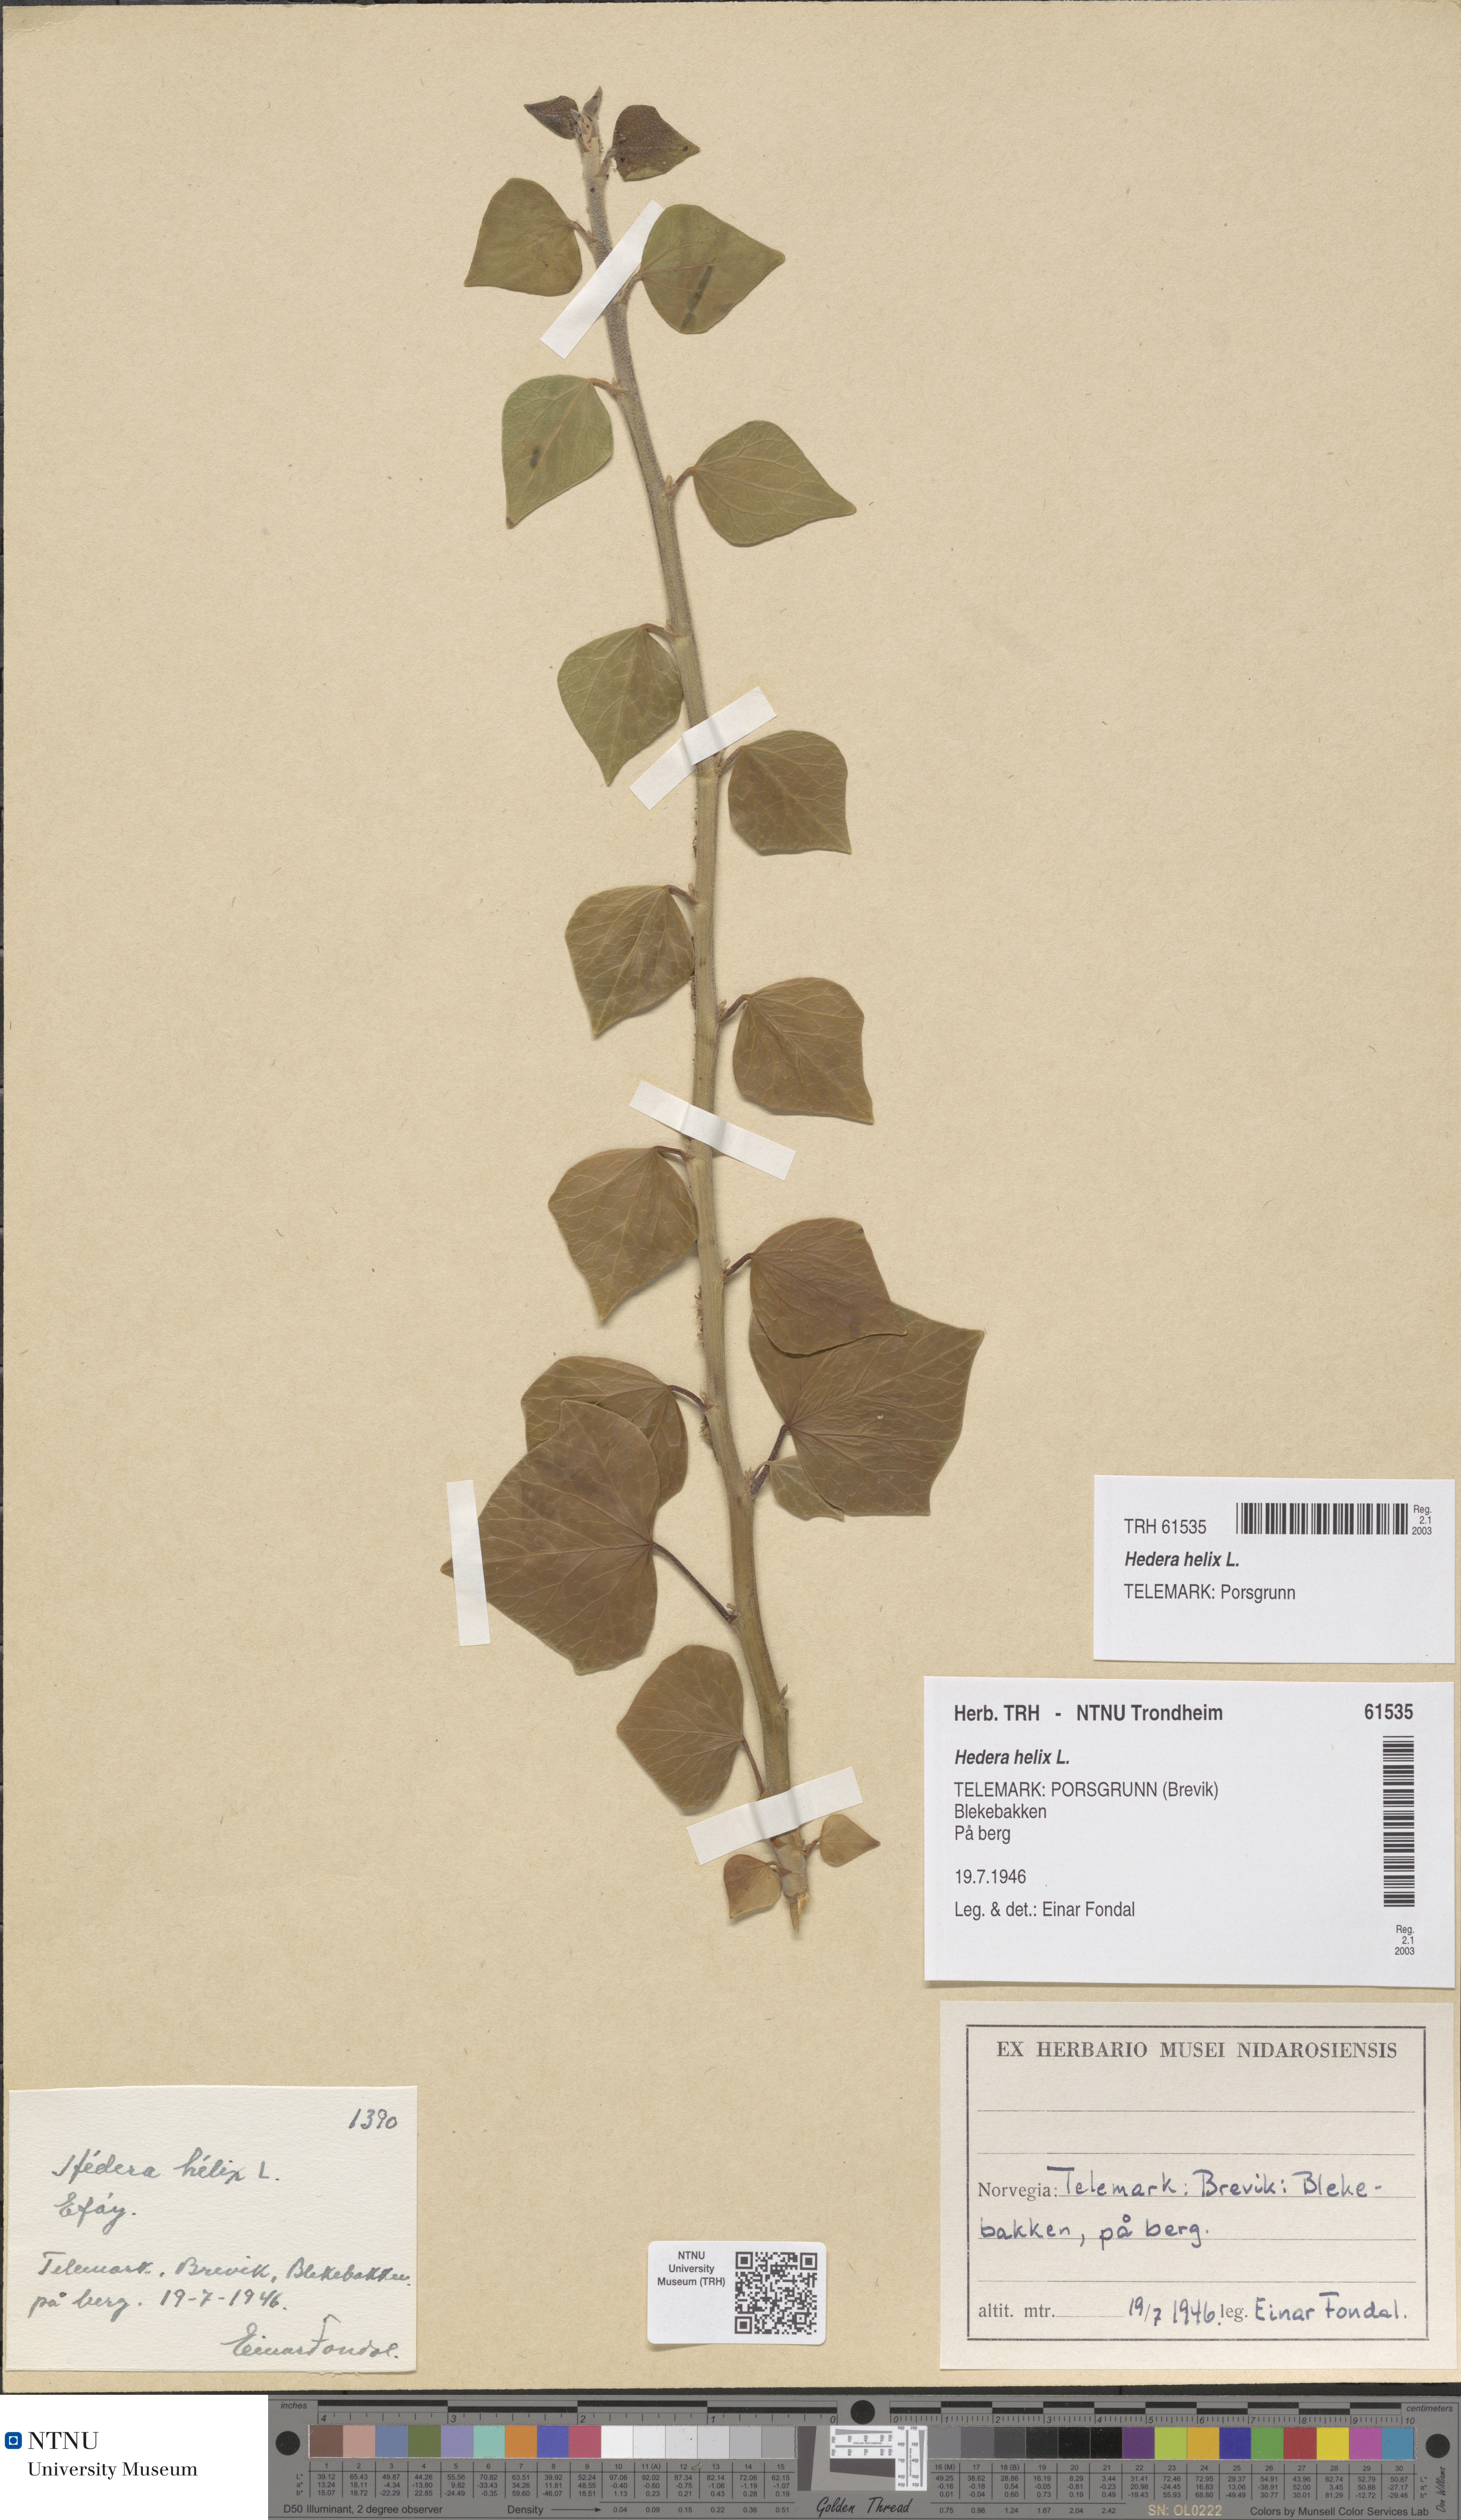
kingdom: Plantae
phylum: Tracheophyta
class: Magnoliopsida
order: Apiales
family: Araliaceae
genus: Hedera
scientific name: Hedera helix
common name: Ivy
